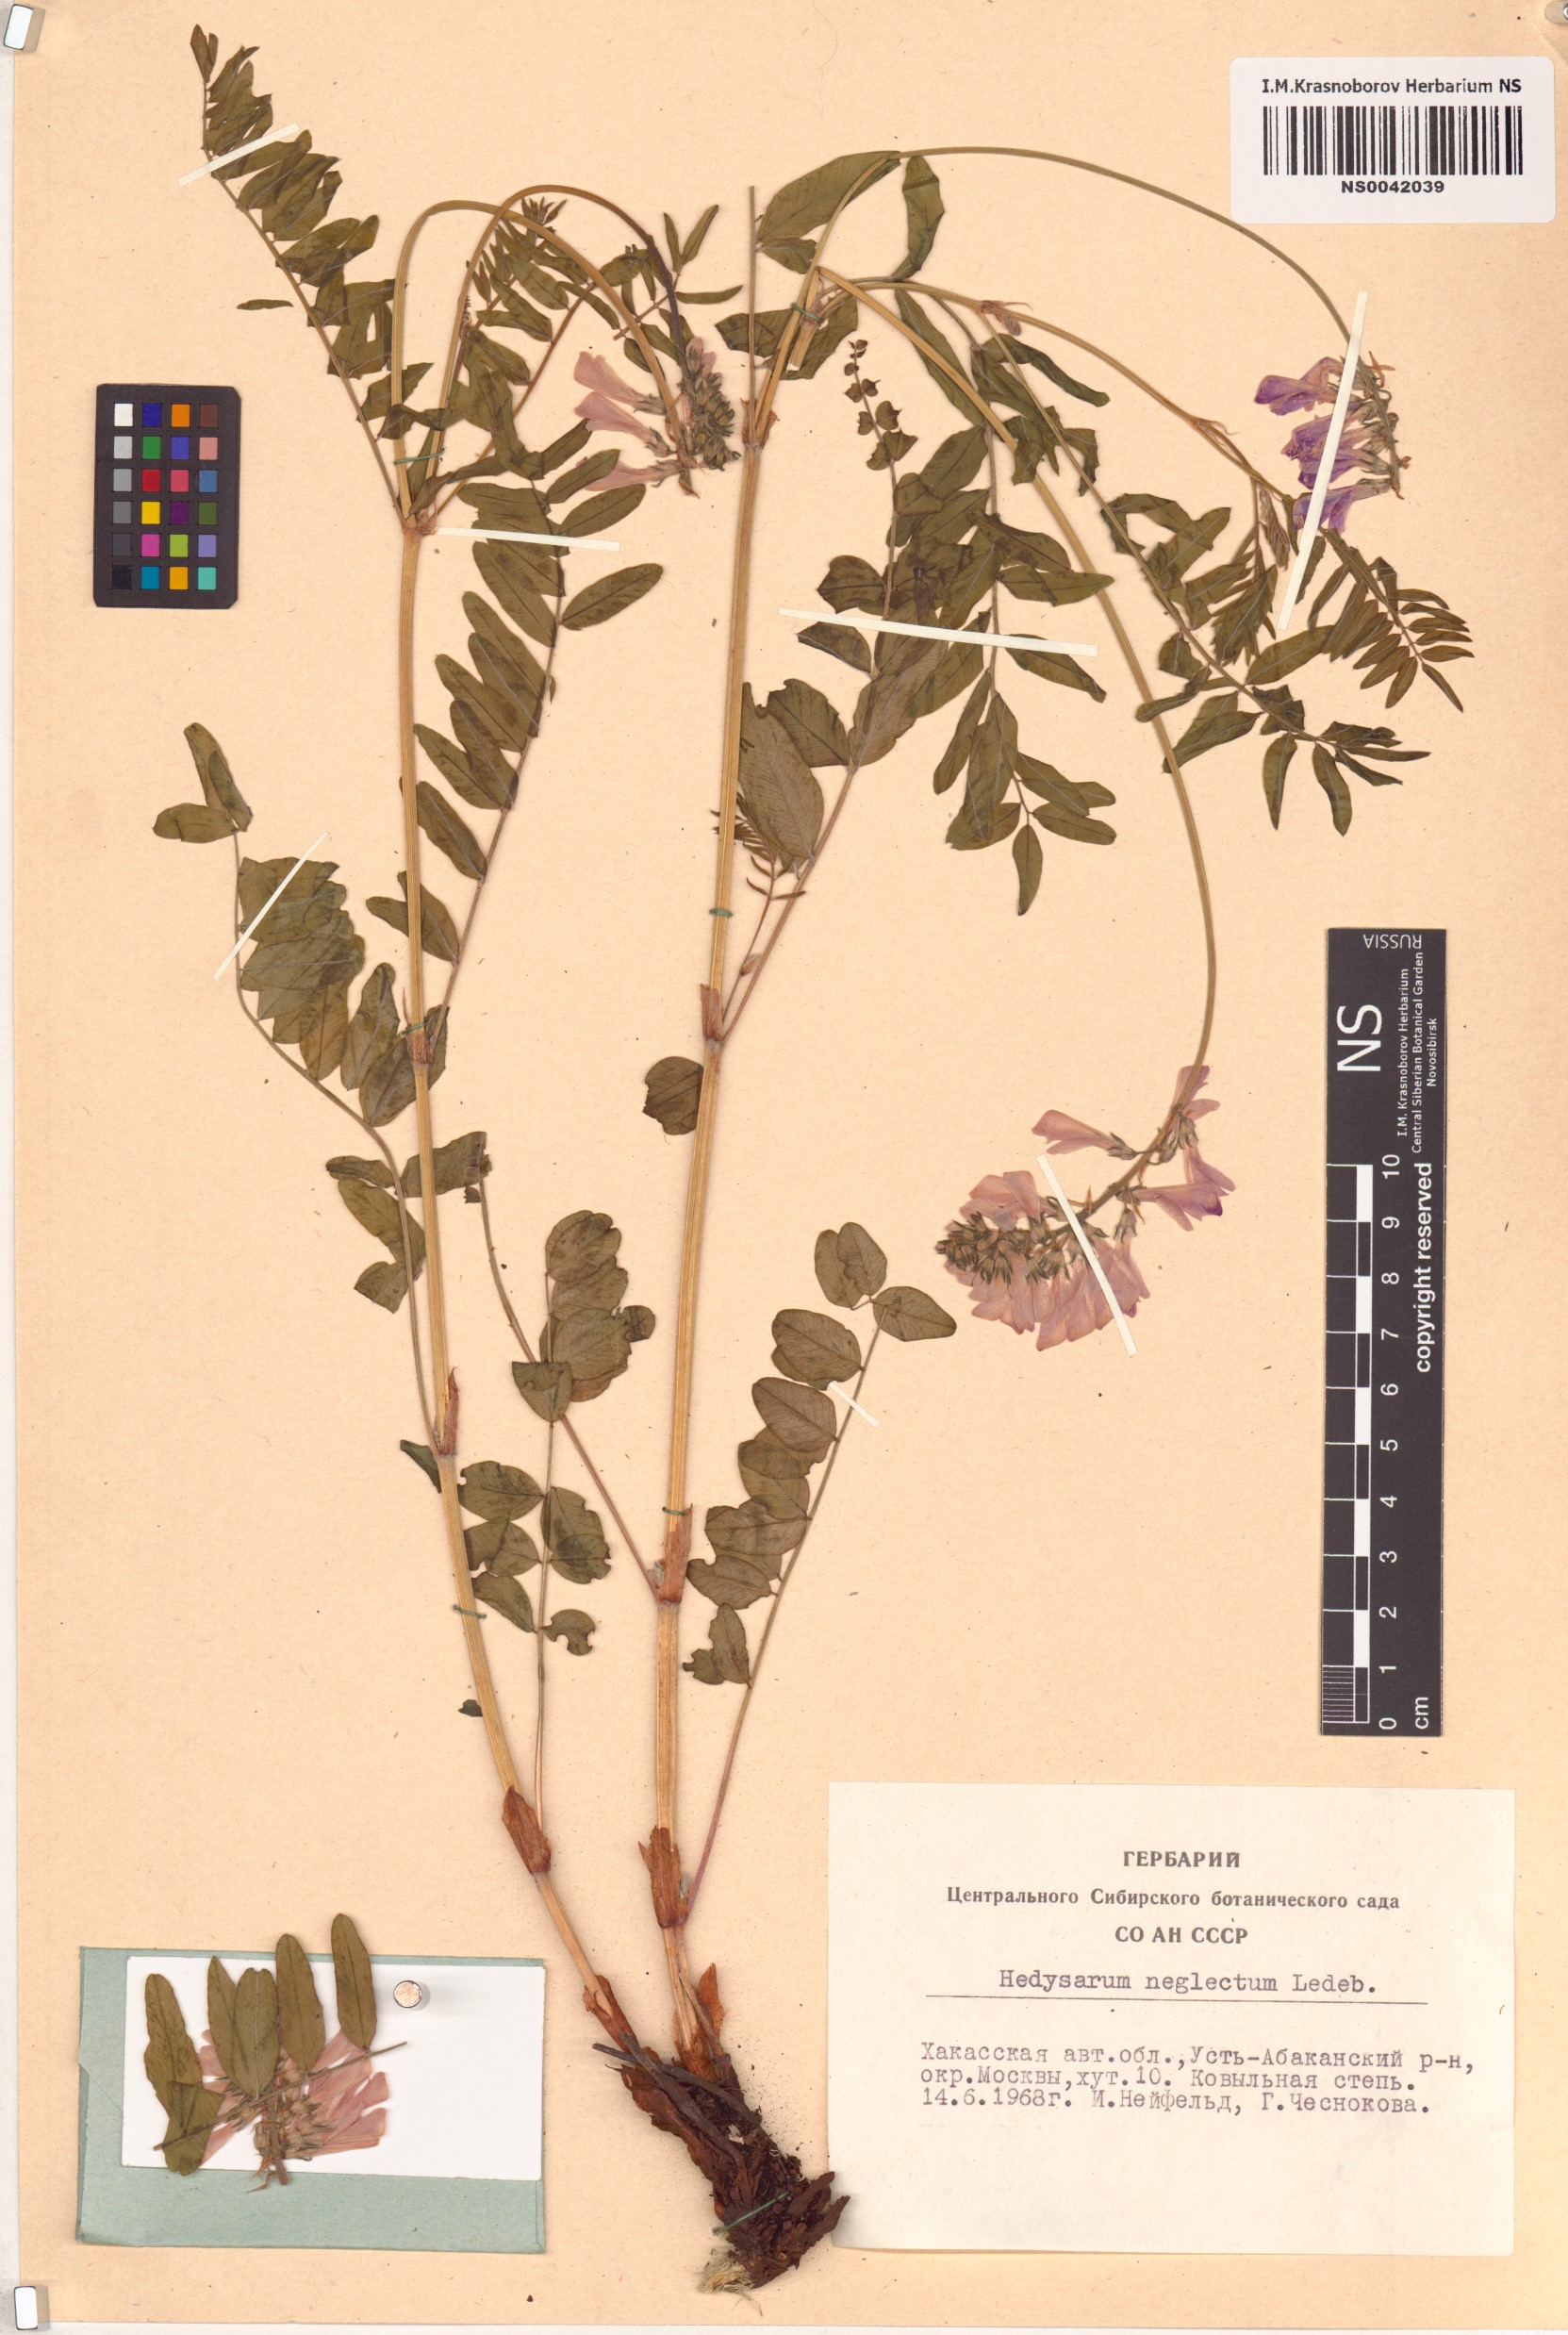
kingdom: Plantae
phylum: Tracheophyta
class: Magnoliopsida
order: Fabales
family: Fabaceae
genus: Hedysarum
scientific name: Hedysarum neglectum
